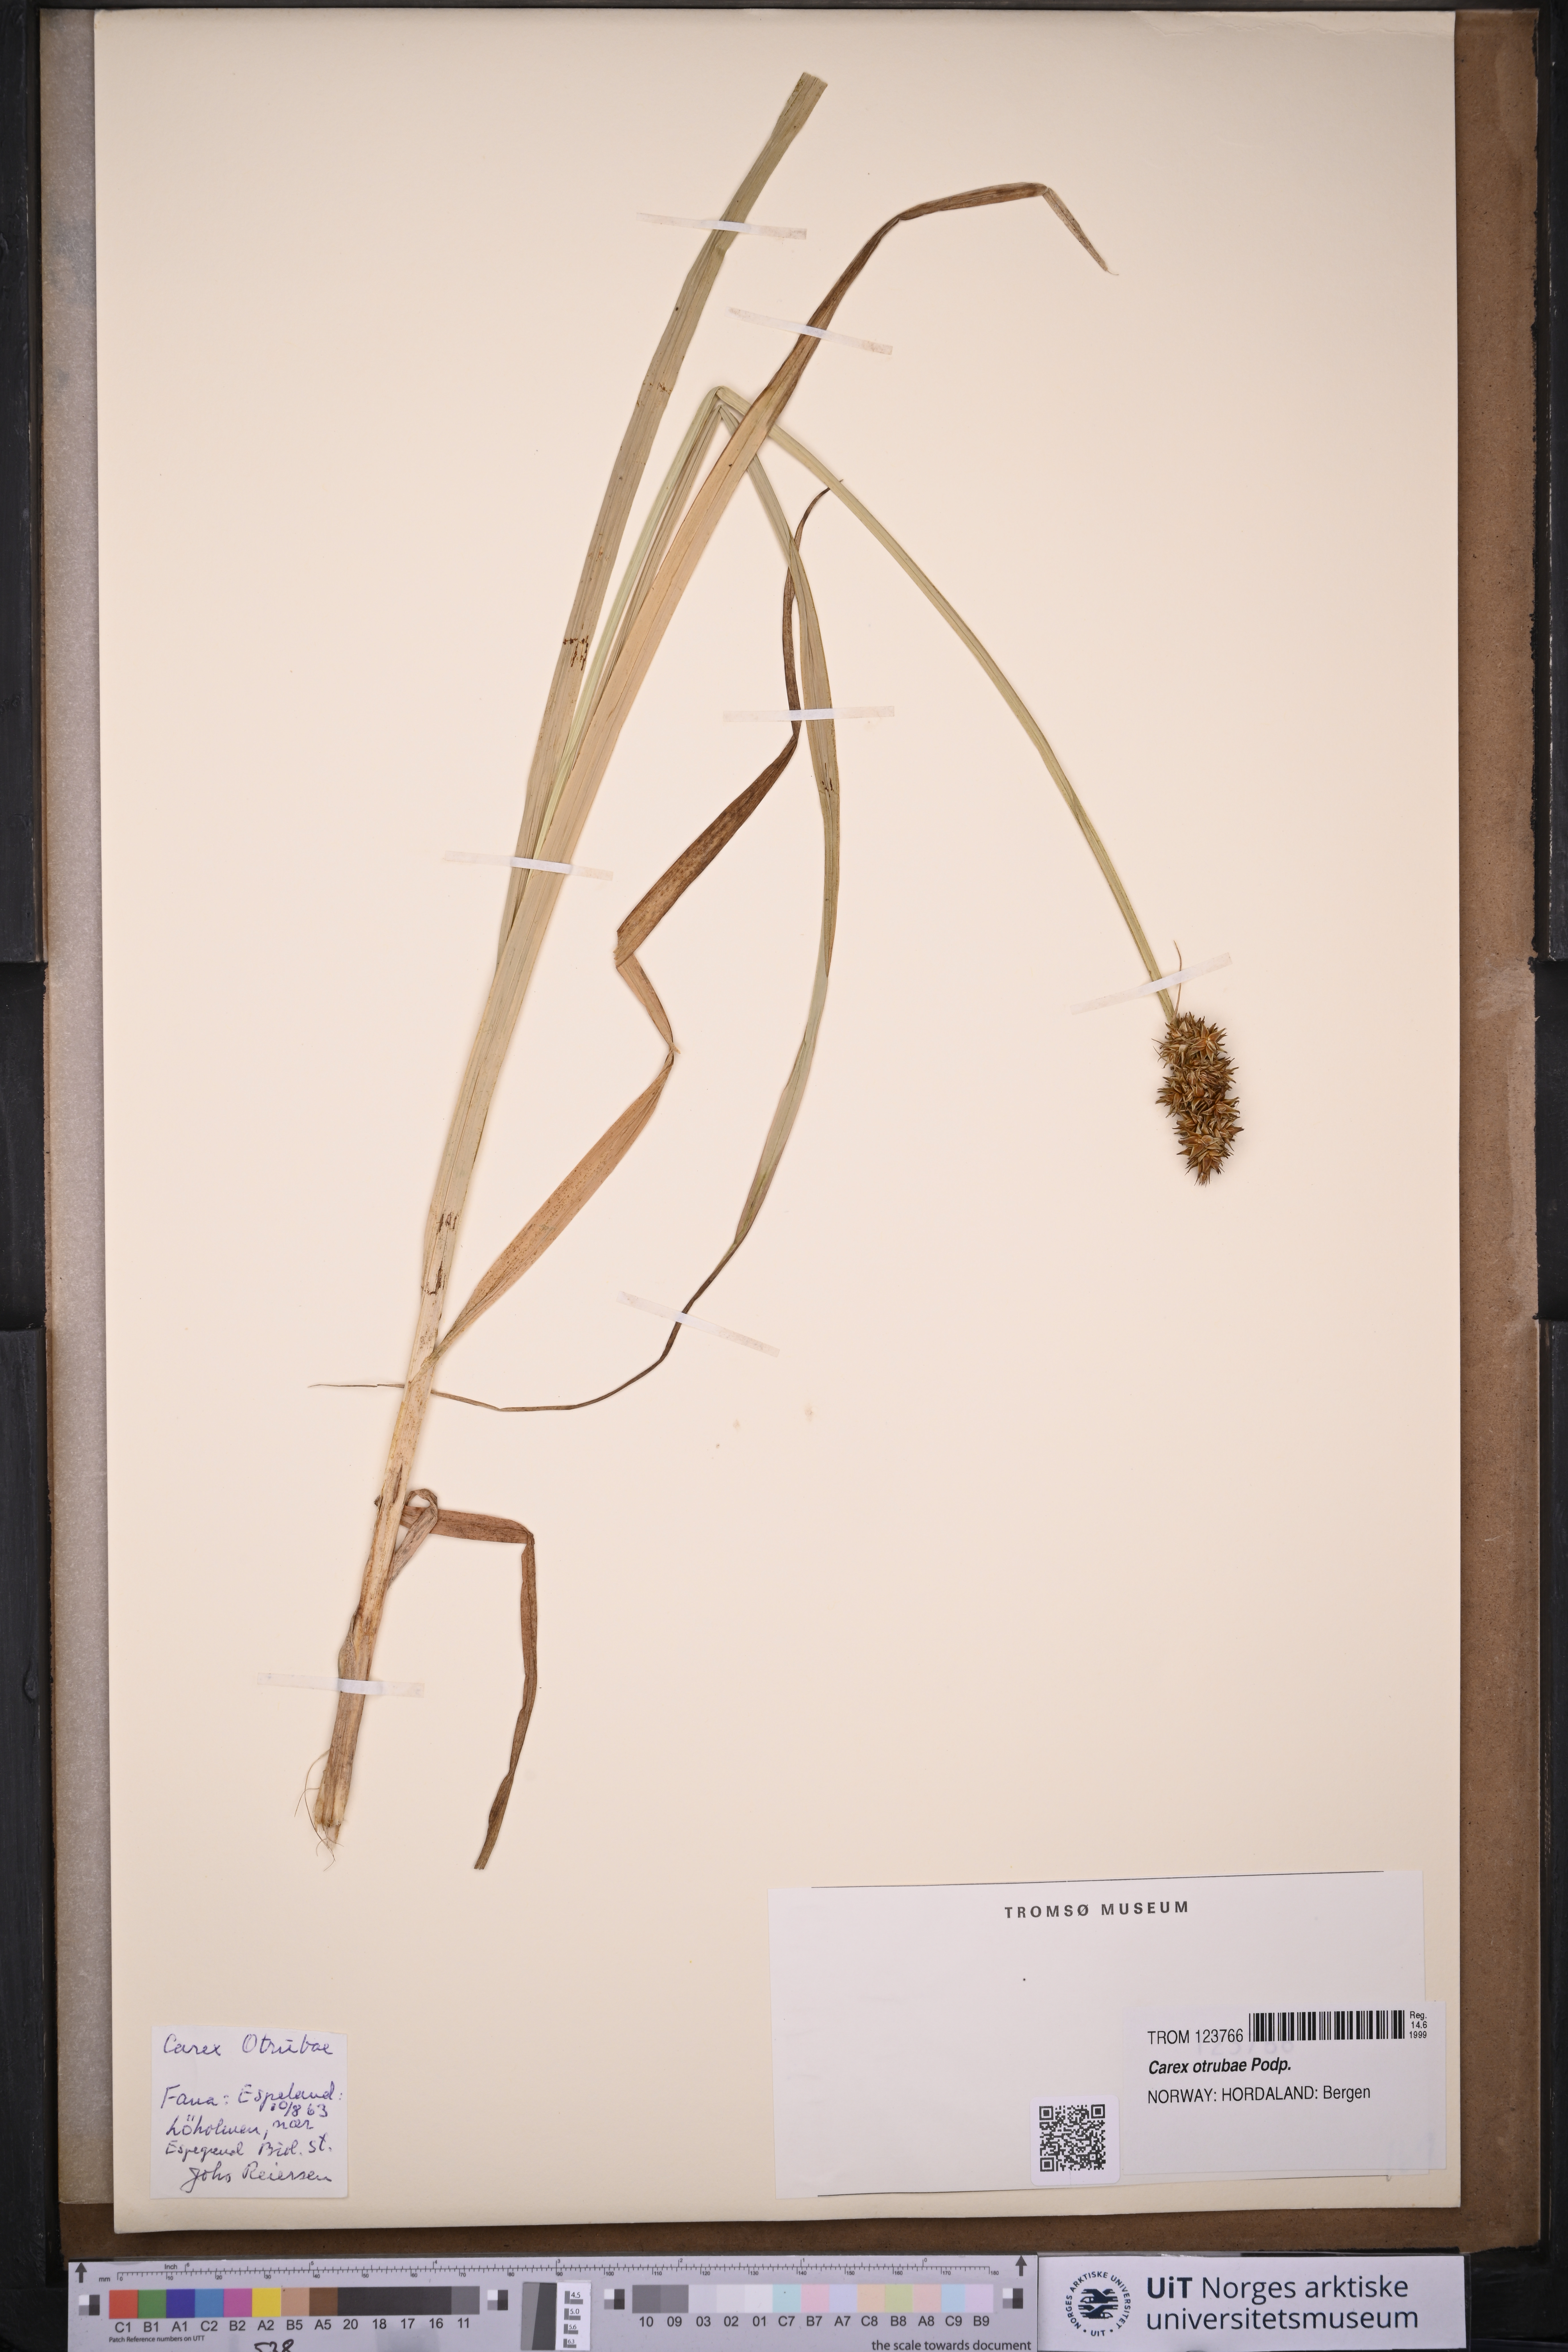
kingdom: Plantae
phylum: Tracheophyta
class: Liliopsida
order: Poales
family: Cyperaceae
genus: Carex
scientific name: Carex otrubae
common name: False fox-sedge
